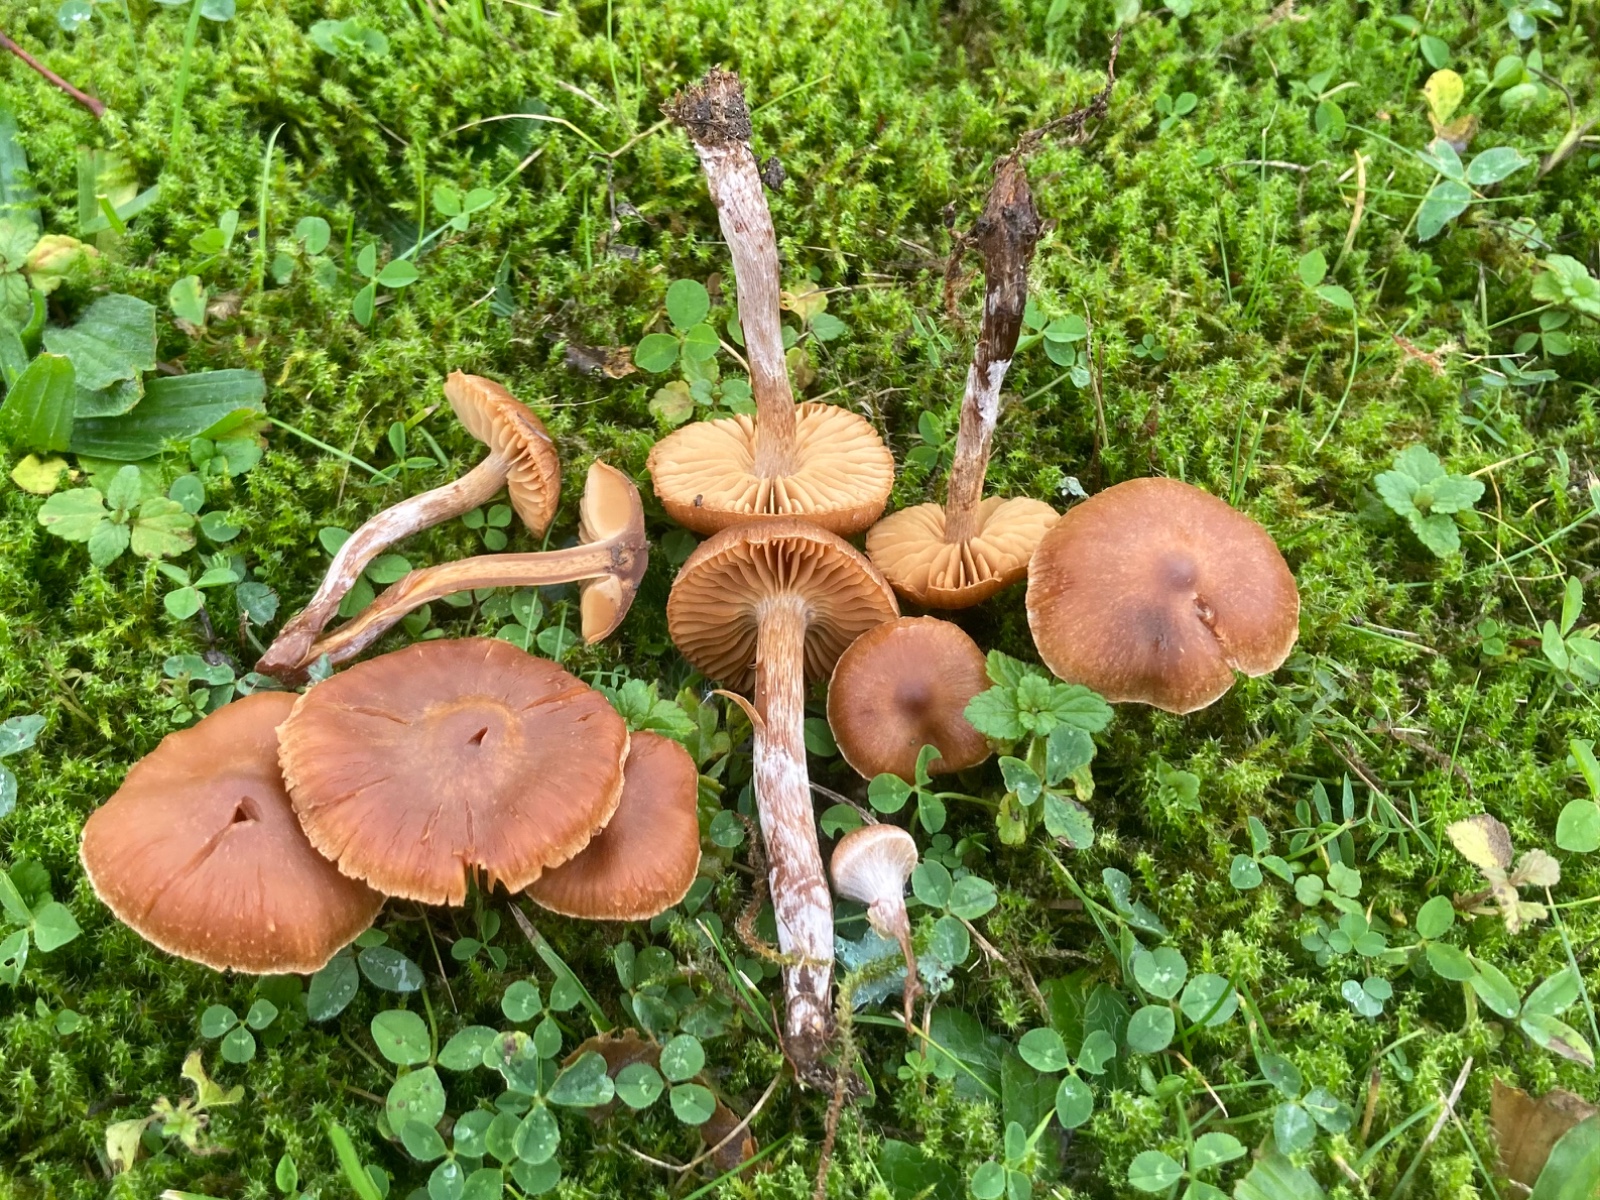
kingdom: Fungi
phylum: Basidiomycota
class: Agaricomycetes
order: Agaricales
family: Cortinariaceae
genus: Cortinarius
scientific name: Cortinarius
